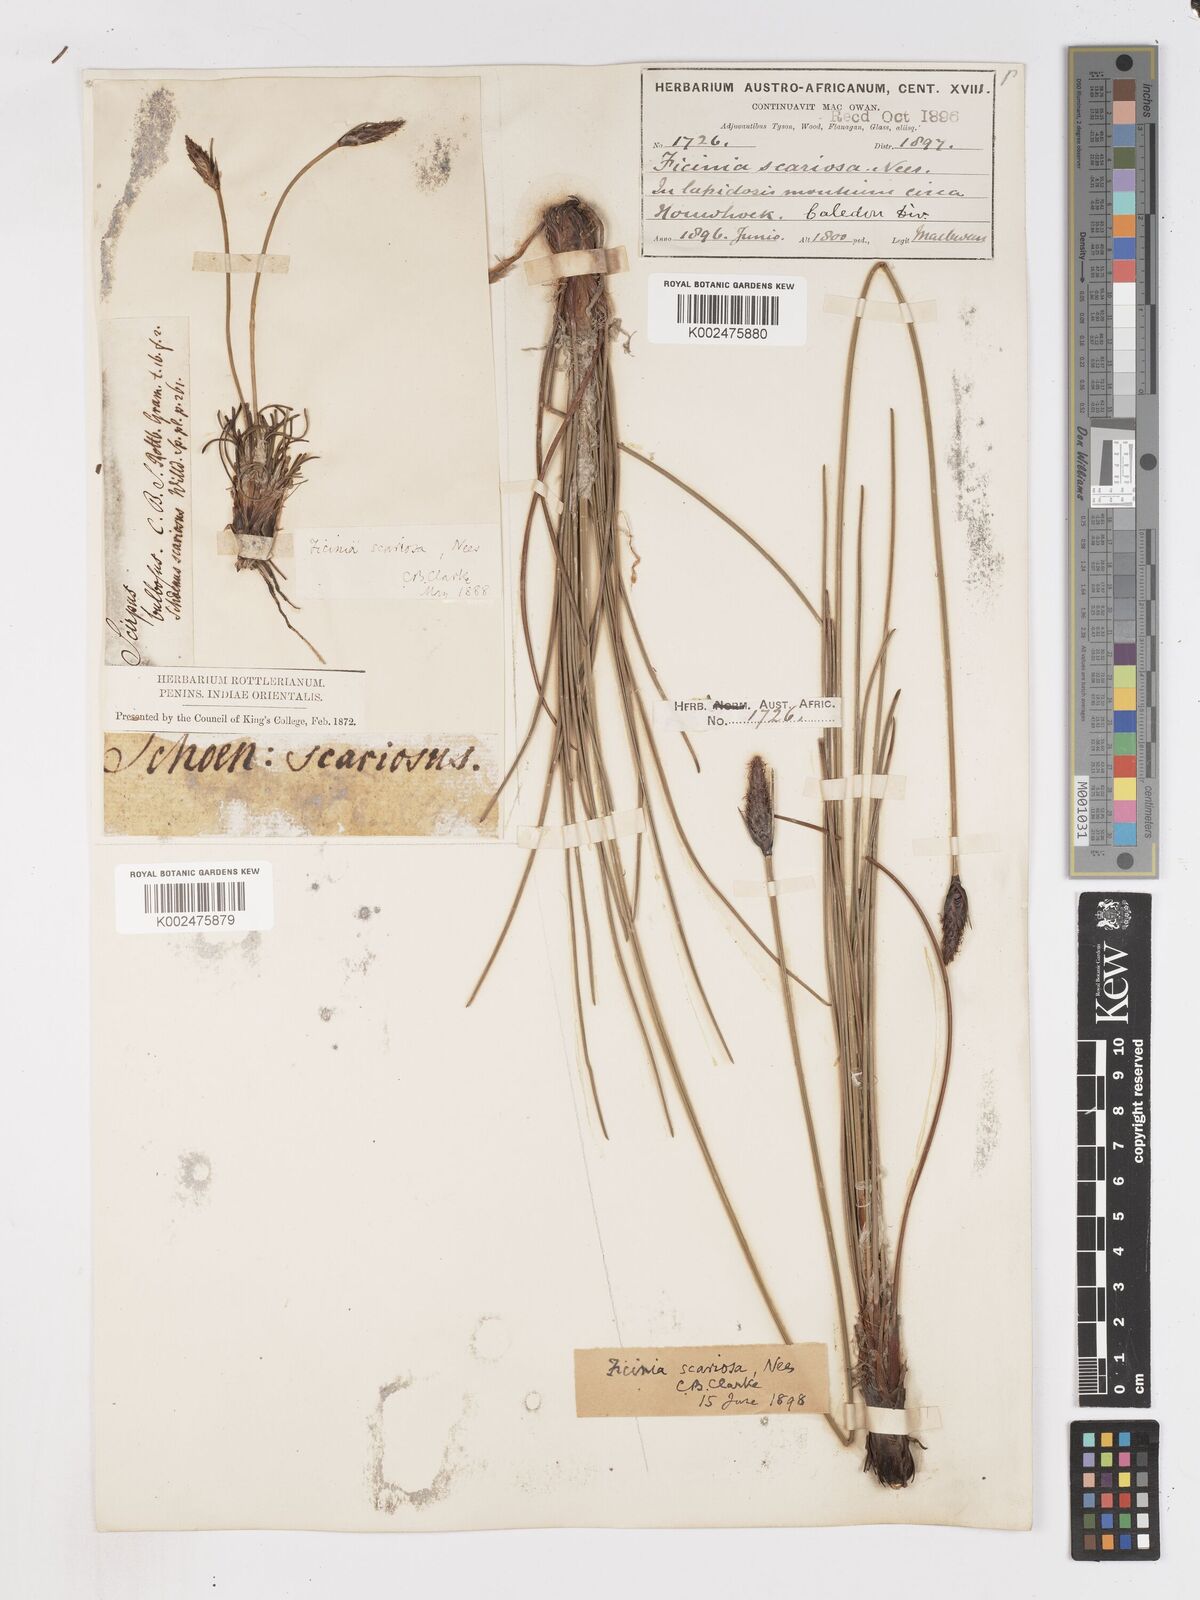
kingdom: Plantae
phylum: Tracheophyta
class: Liliopsida
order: Poales
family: Cyperaceae
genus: Ficinia
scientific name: Ficinia deusta
